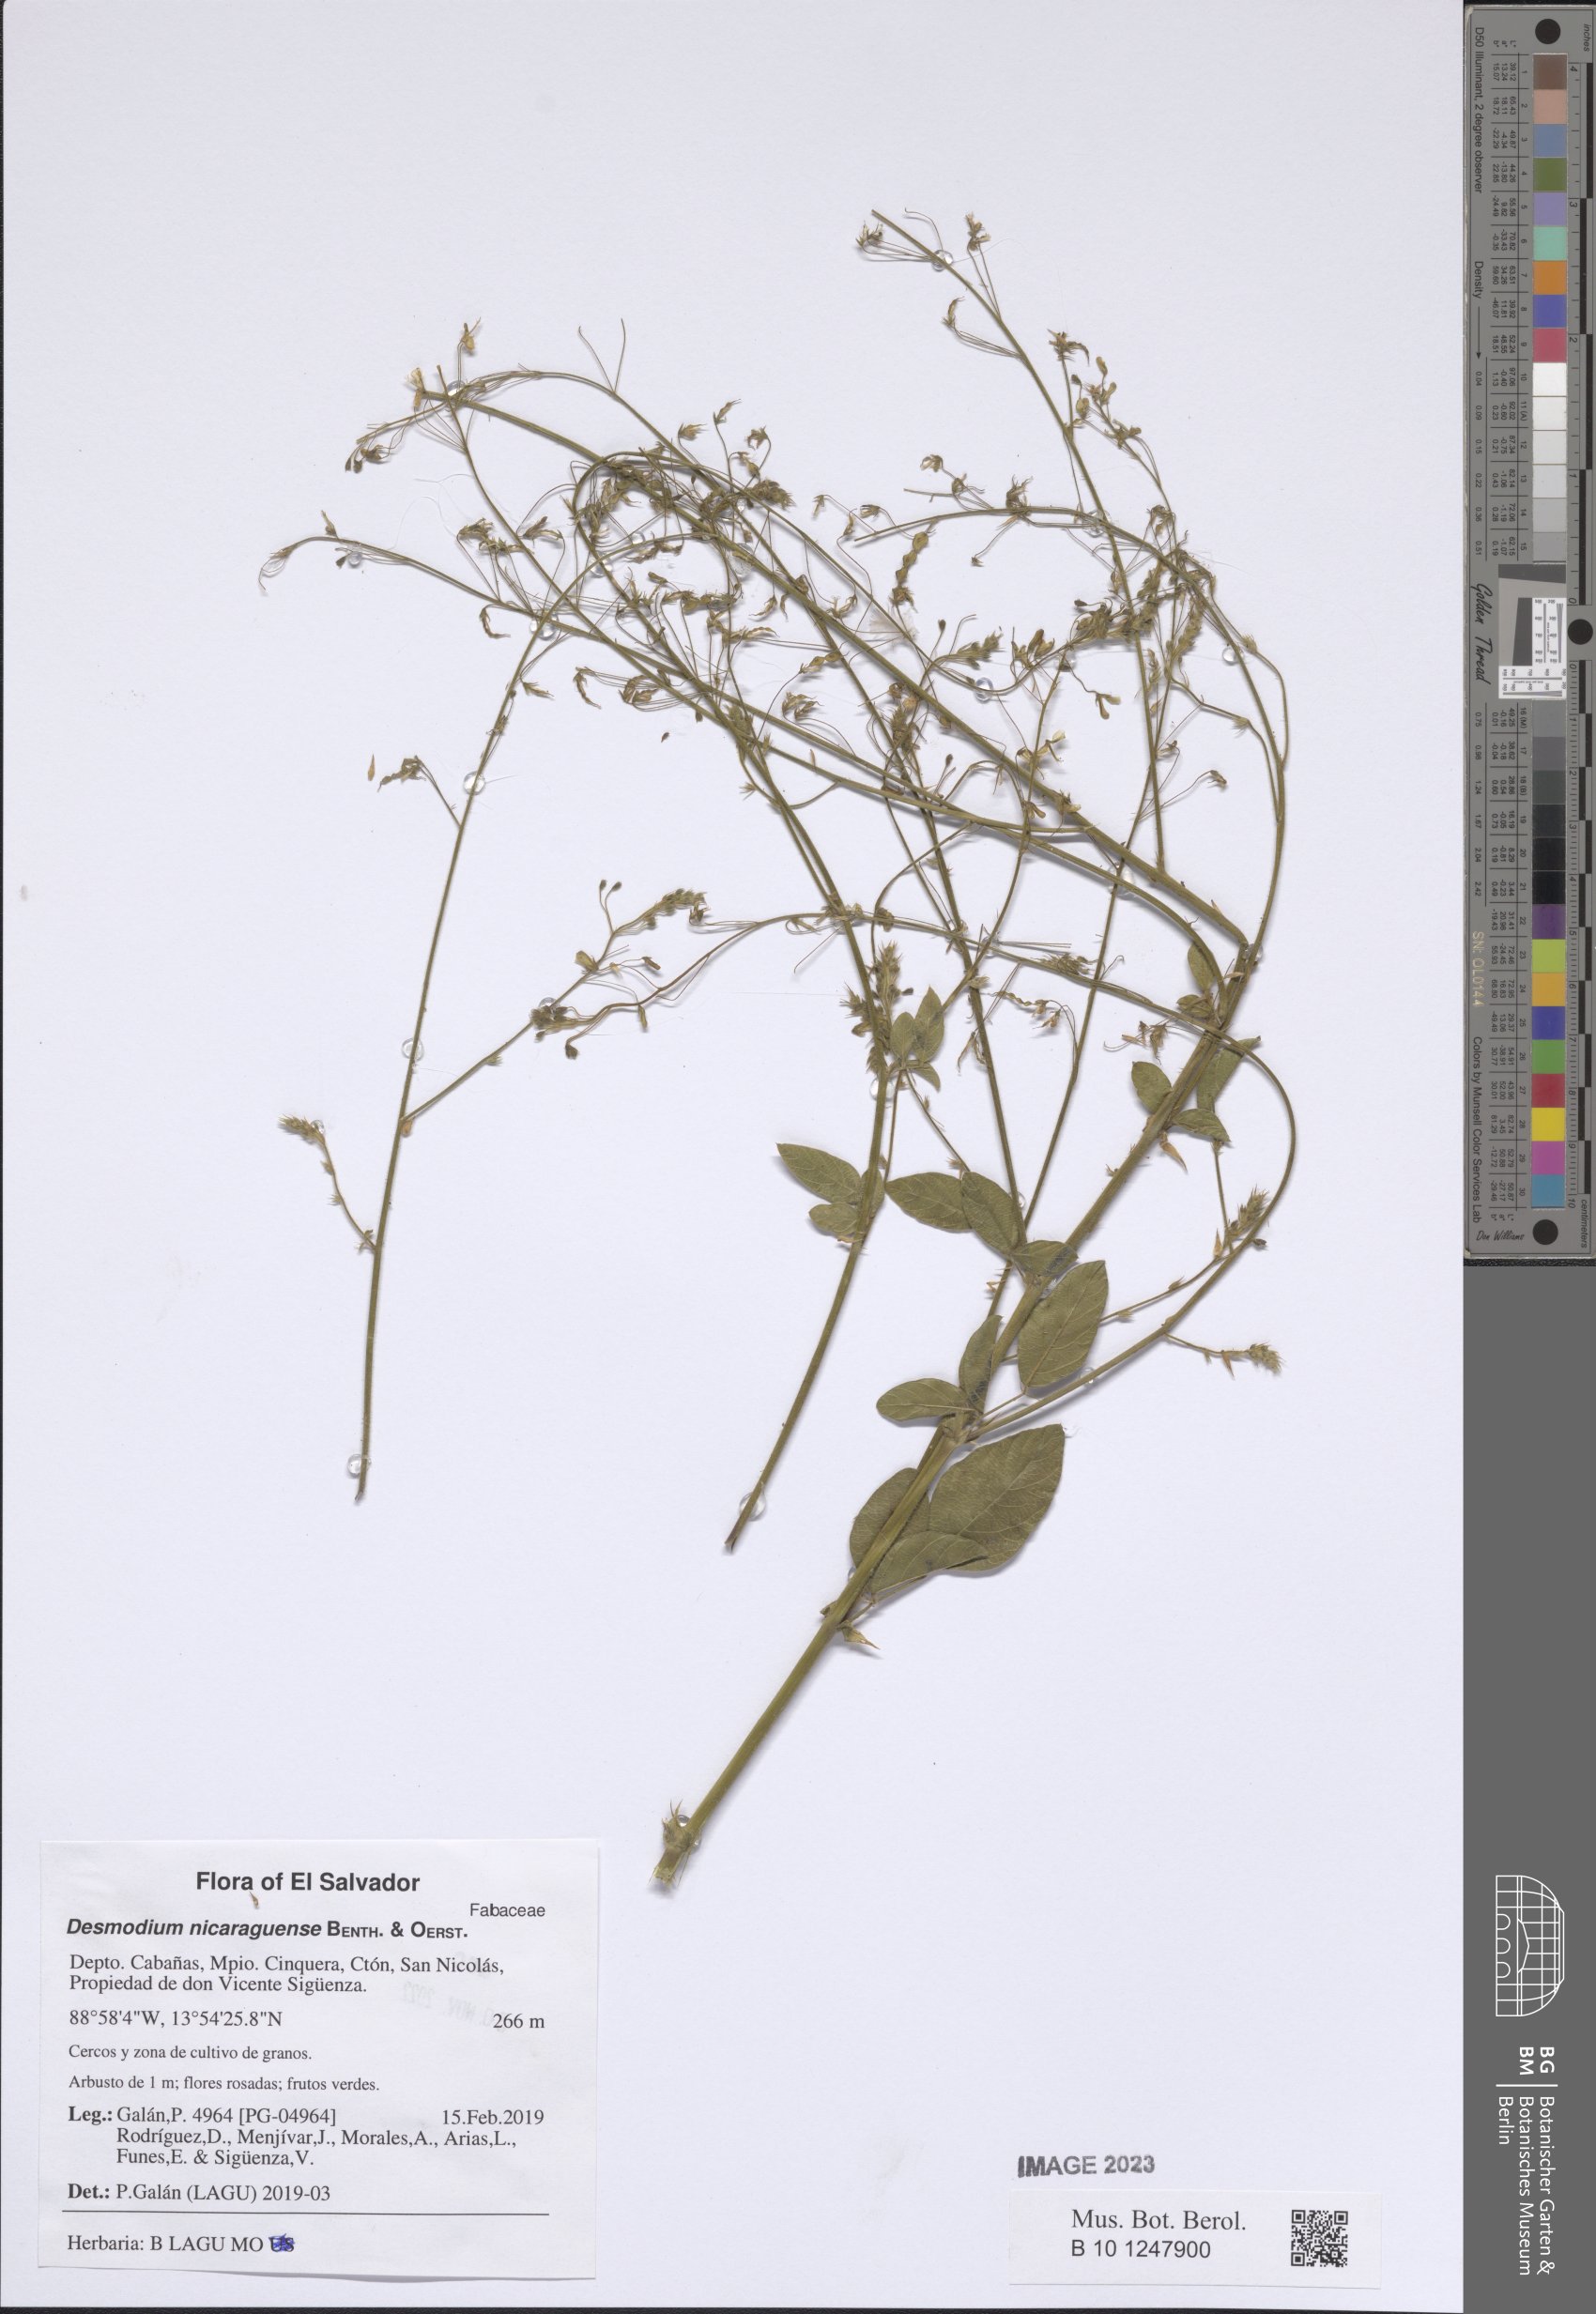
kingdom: Plantae
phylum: Tracheophyta
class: Magnoliopsida
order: Fabales
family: Fabaceae
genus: Desmodium
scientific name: Desmodium nicaraguense
